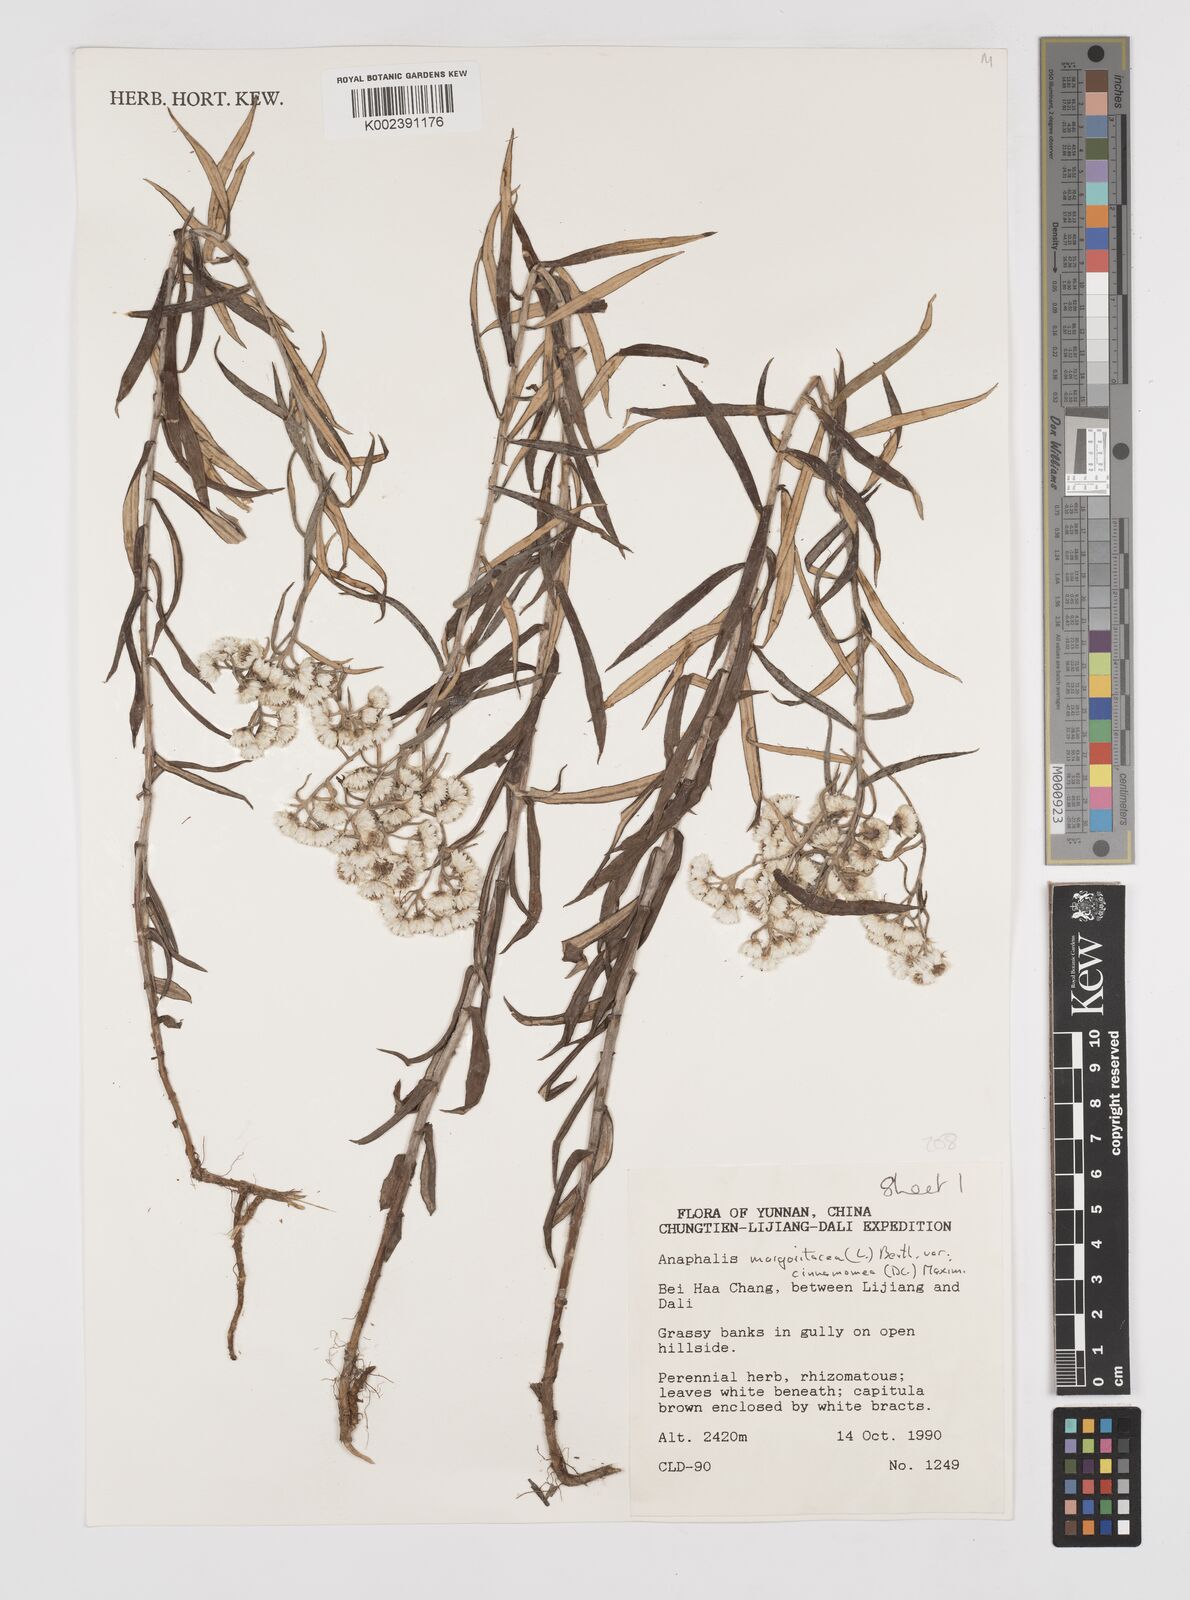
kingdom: Plantae
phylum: Tracheophyta
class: Magnoliopsida
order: Asterales
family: Asteraceae
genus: Anaphalis
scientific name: Anaphalis margaritacea
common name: Pearly everlasting
